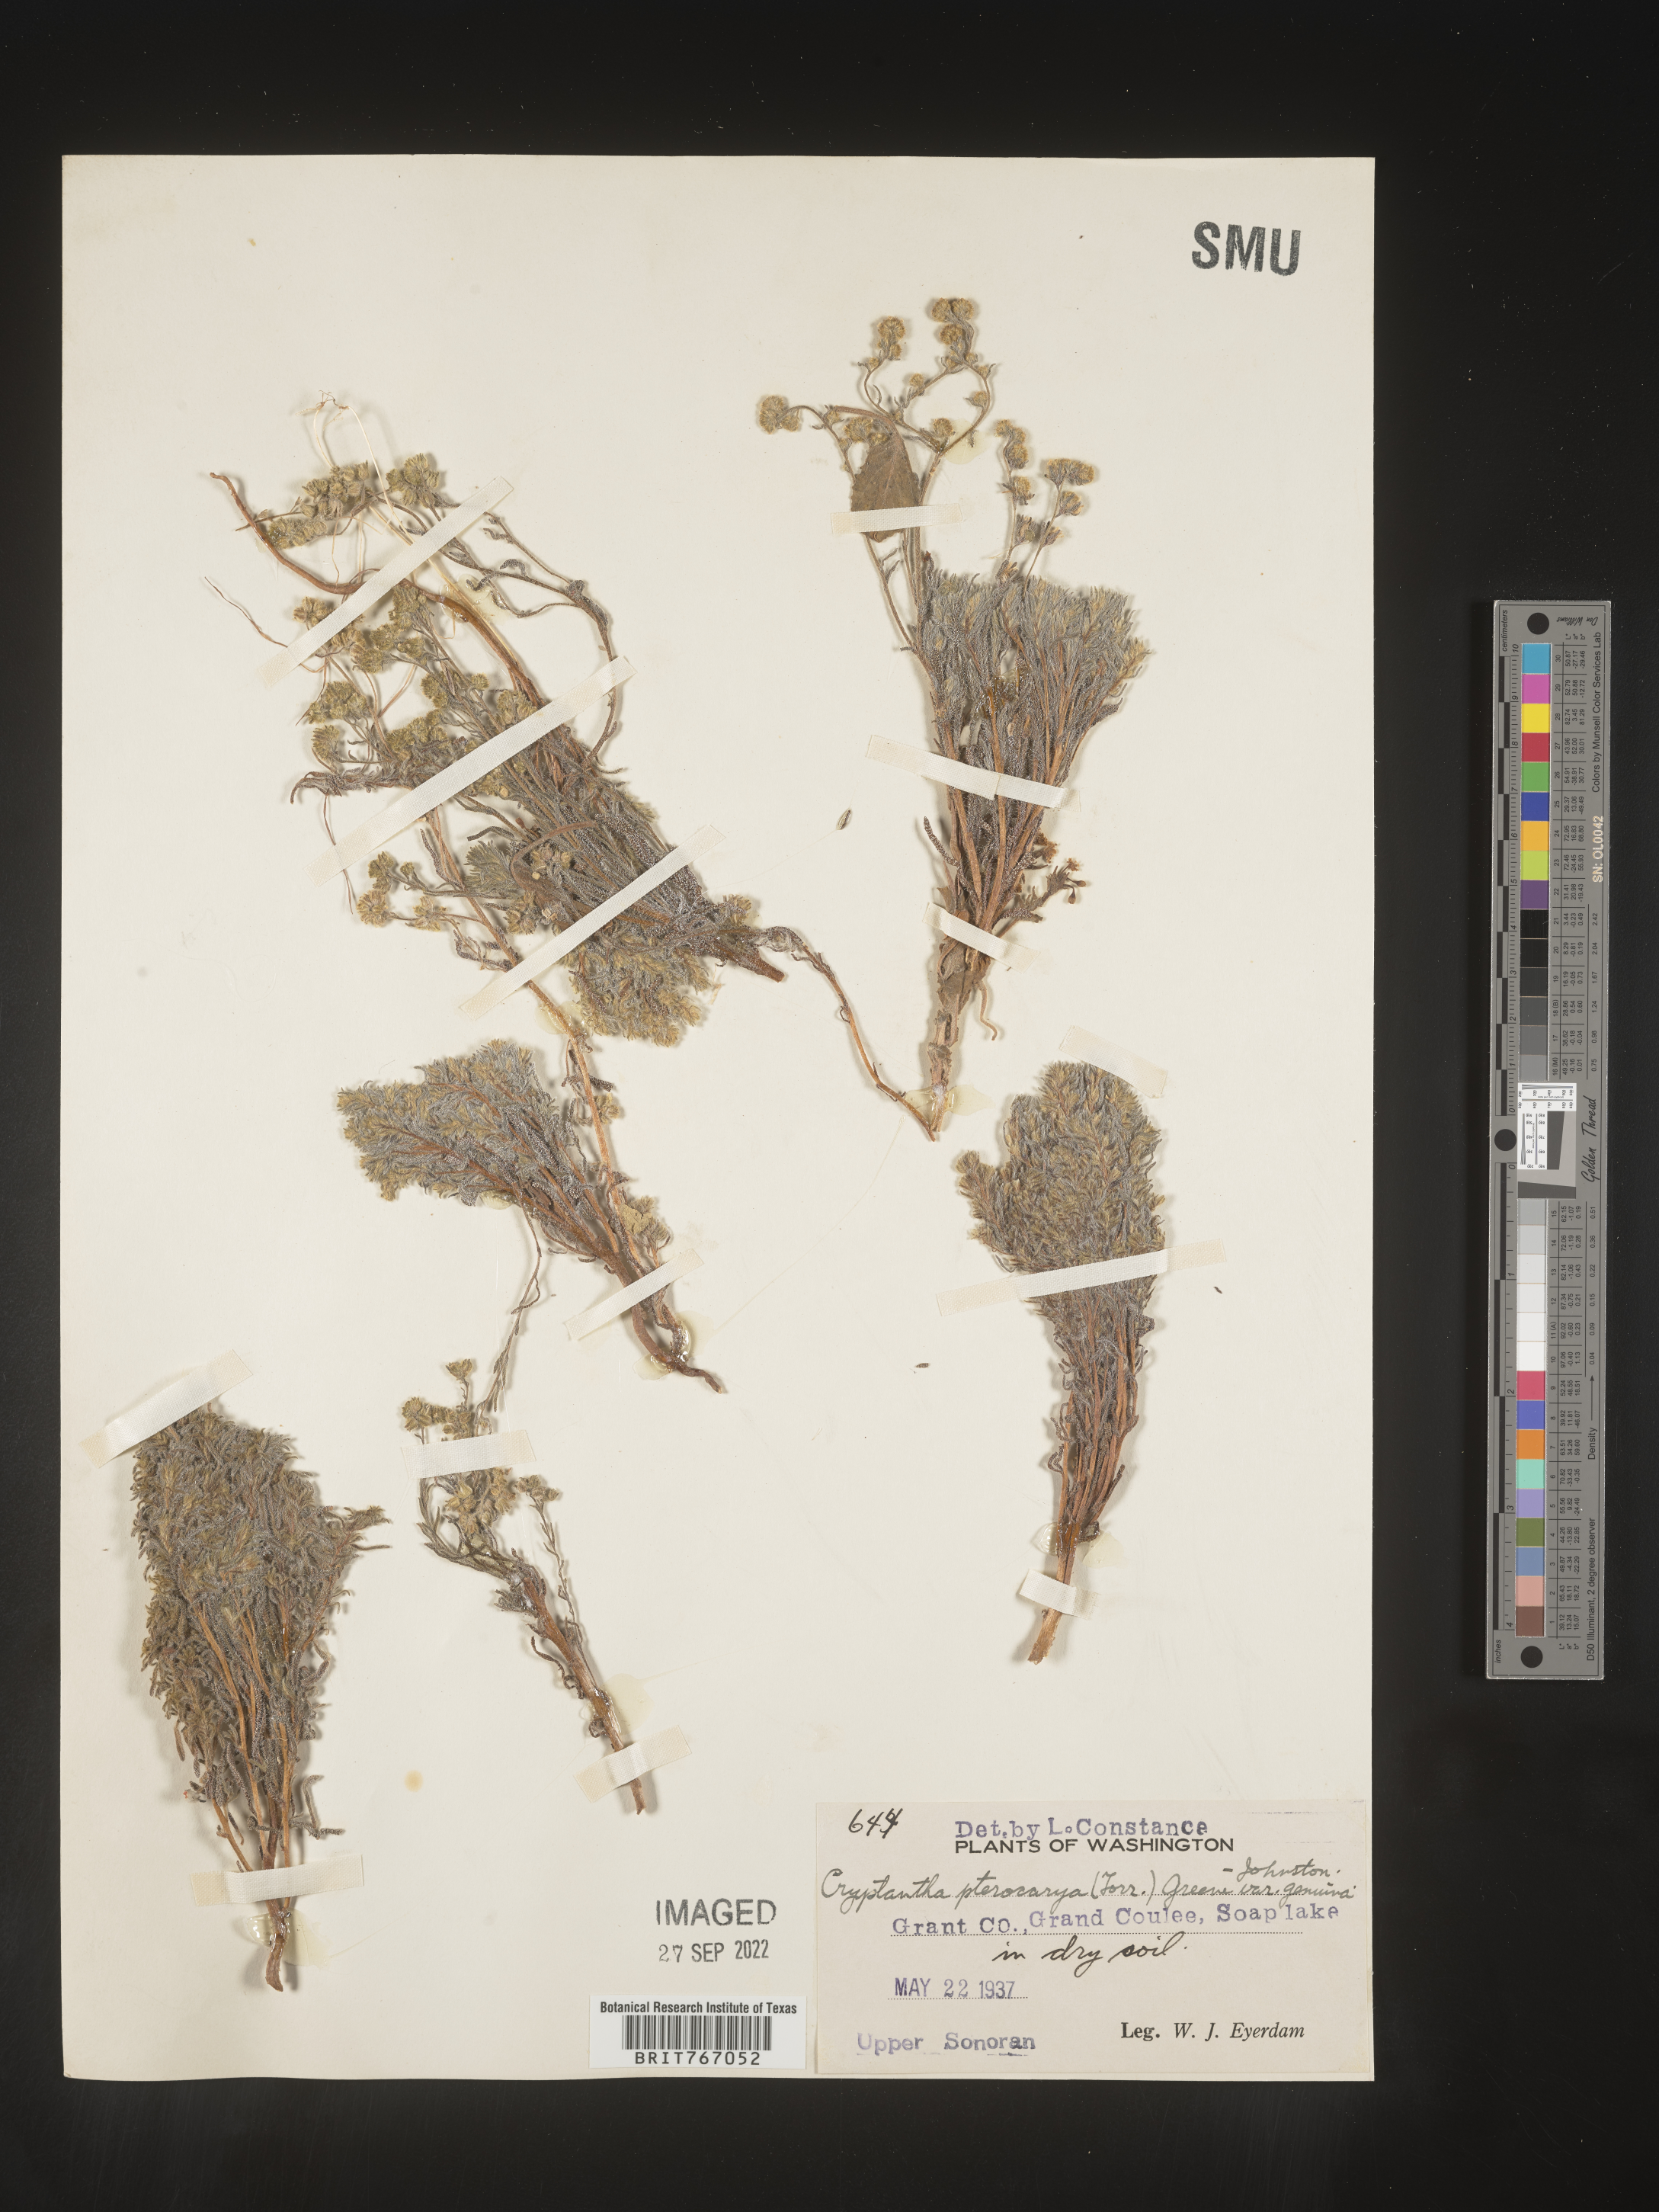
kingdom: Plantae
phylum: Tracheophyta
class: Magnoliopsida
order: Boraginales
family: Boraginaceae
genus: Cryptantha
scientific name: Cryptantha pterocarya
